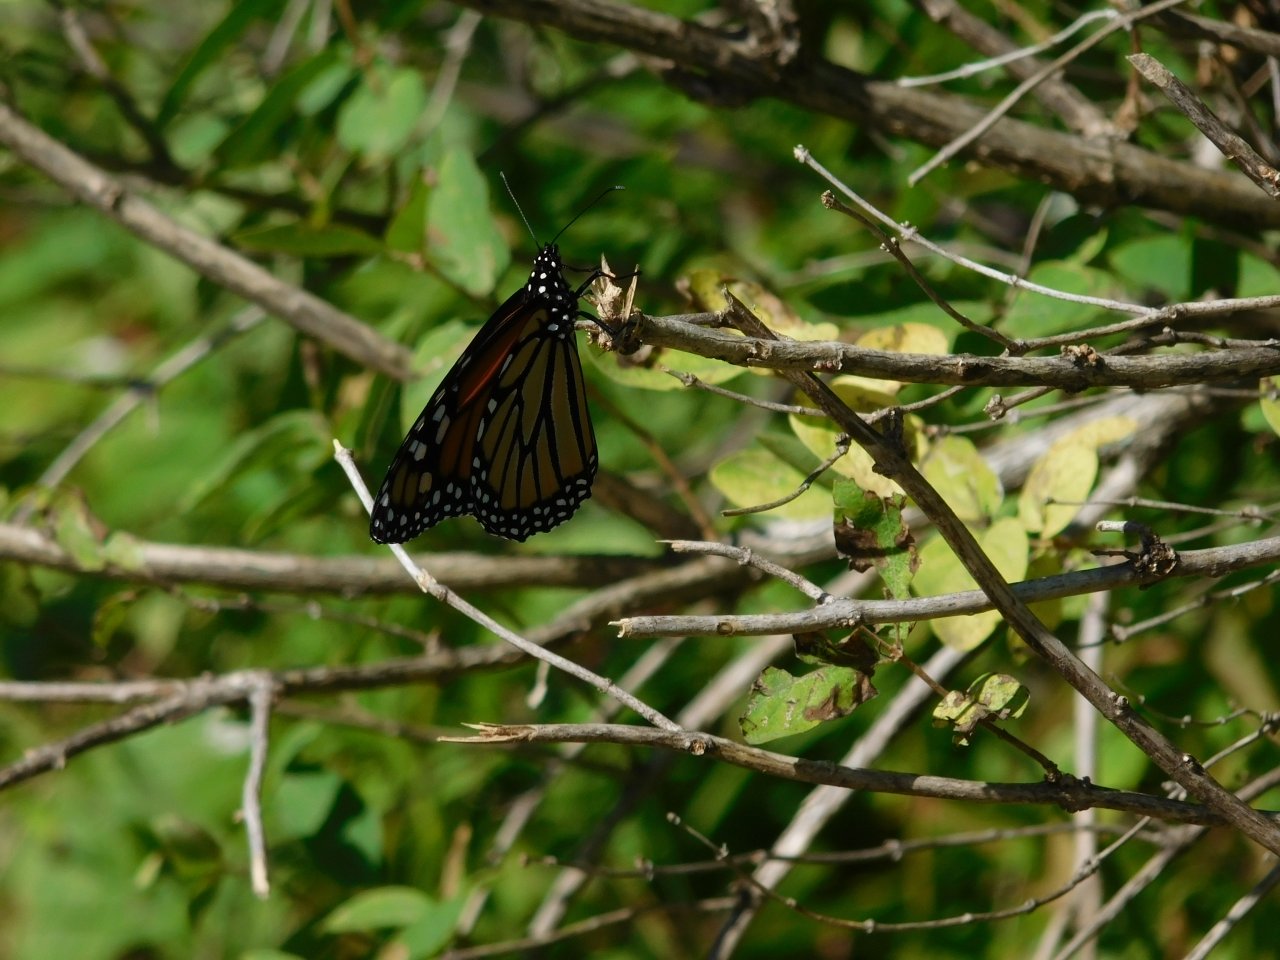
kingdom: Animalia
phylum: Arthropoda
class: Insecta
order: Lepidoptera
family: Nymphalidae
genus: Danaus
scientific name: Danaus plexippus
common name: Monarch
